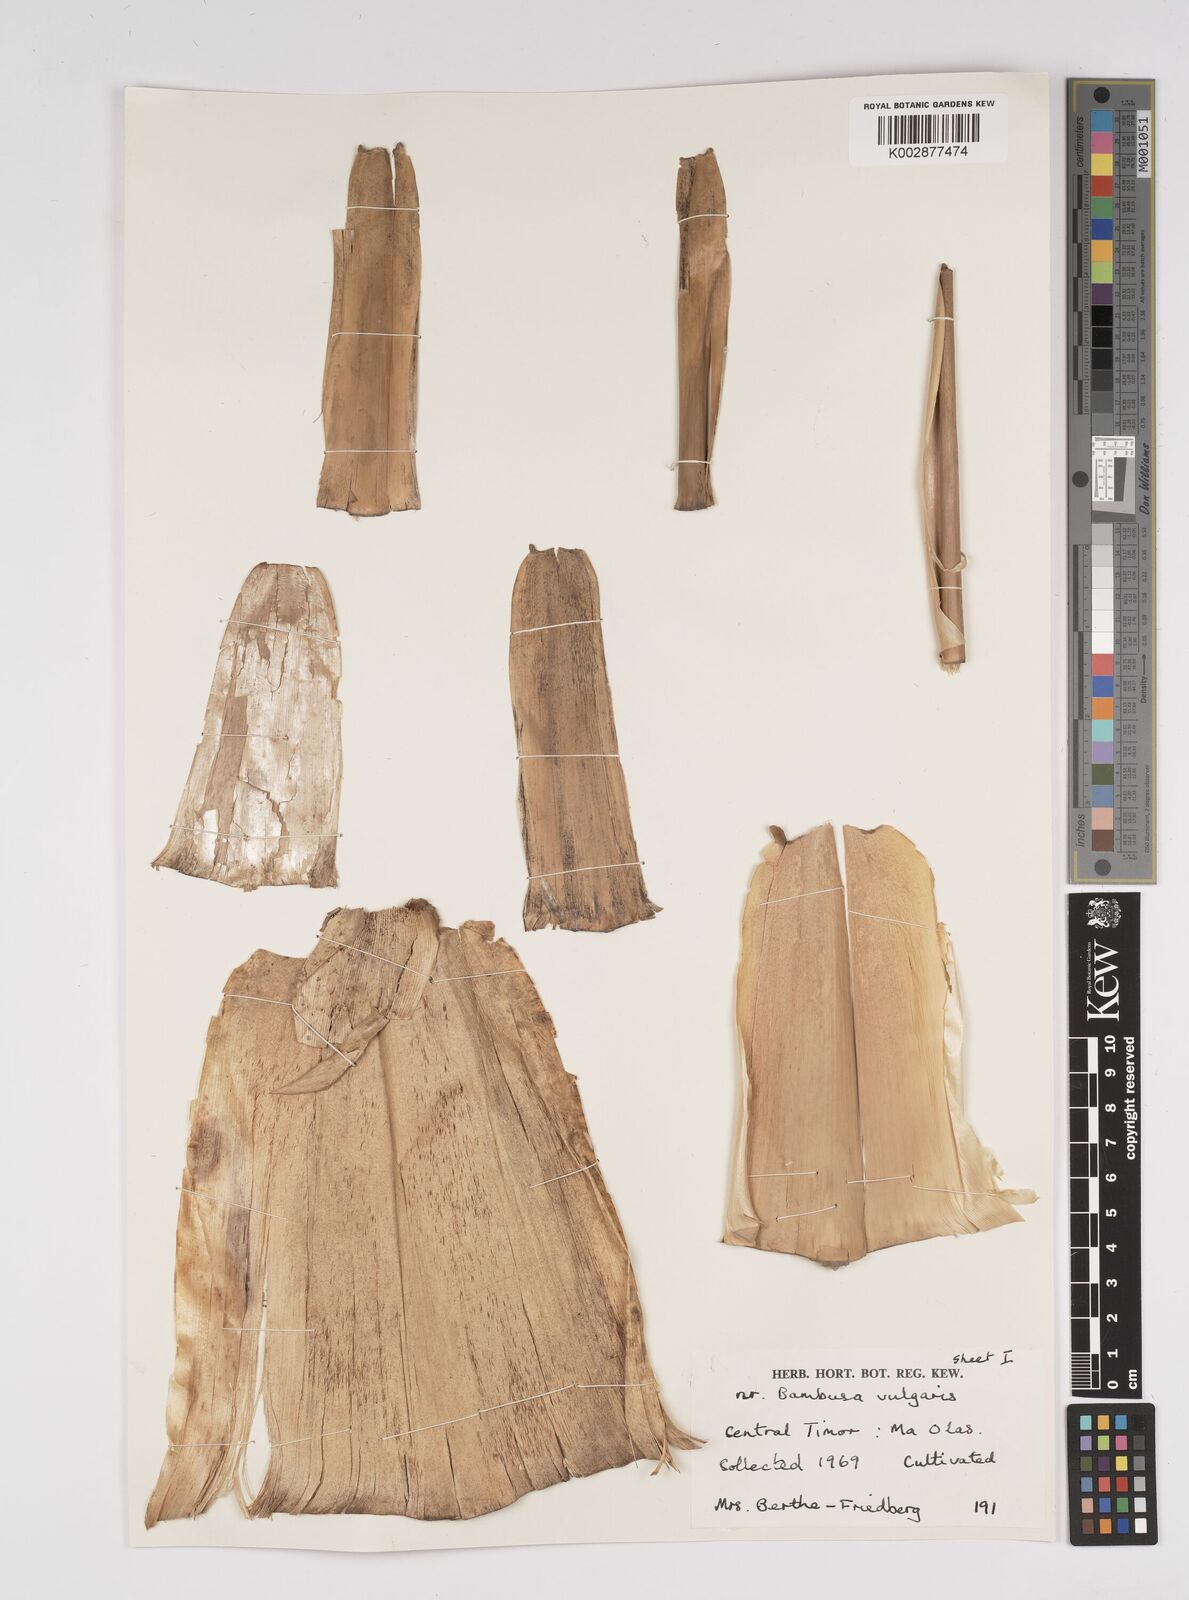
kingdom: Plantae
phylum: Tracheophyta
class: Liliopsida
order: Poales
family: Poaceae
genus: Bambusa
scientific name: Bambusa
